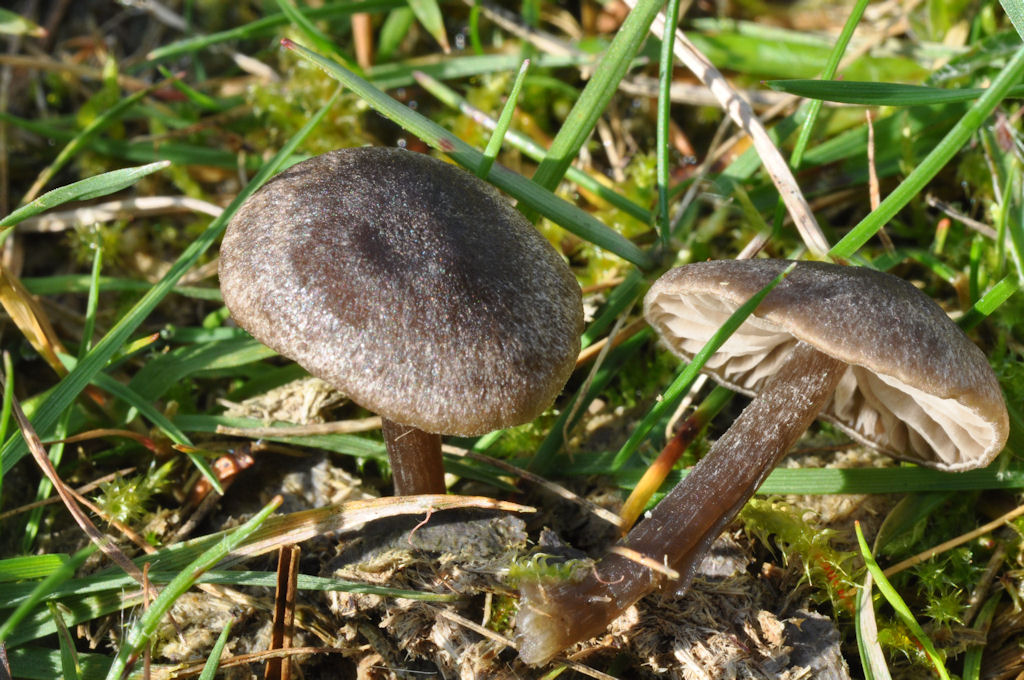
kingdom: Fungi
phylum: Basidiomycota
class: Agaricomycetes
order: Agaricales
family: Entolomataceae
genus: Entoloma
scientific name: Entoloma fernandae
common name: filtet rødblad
